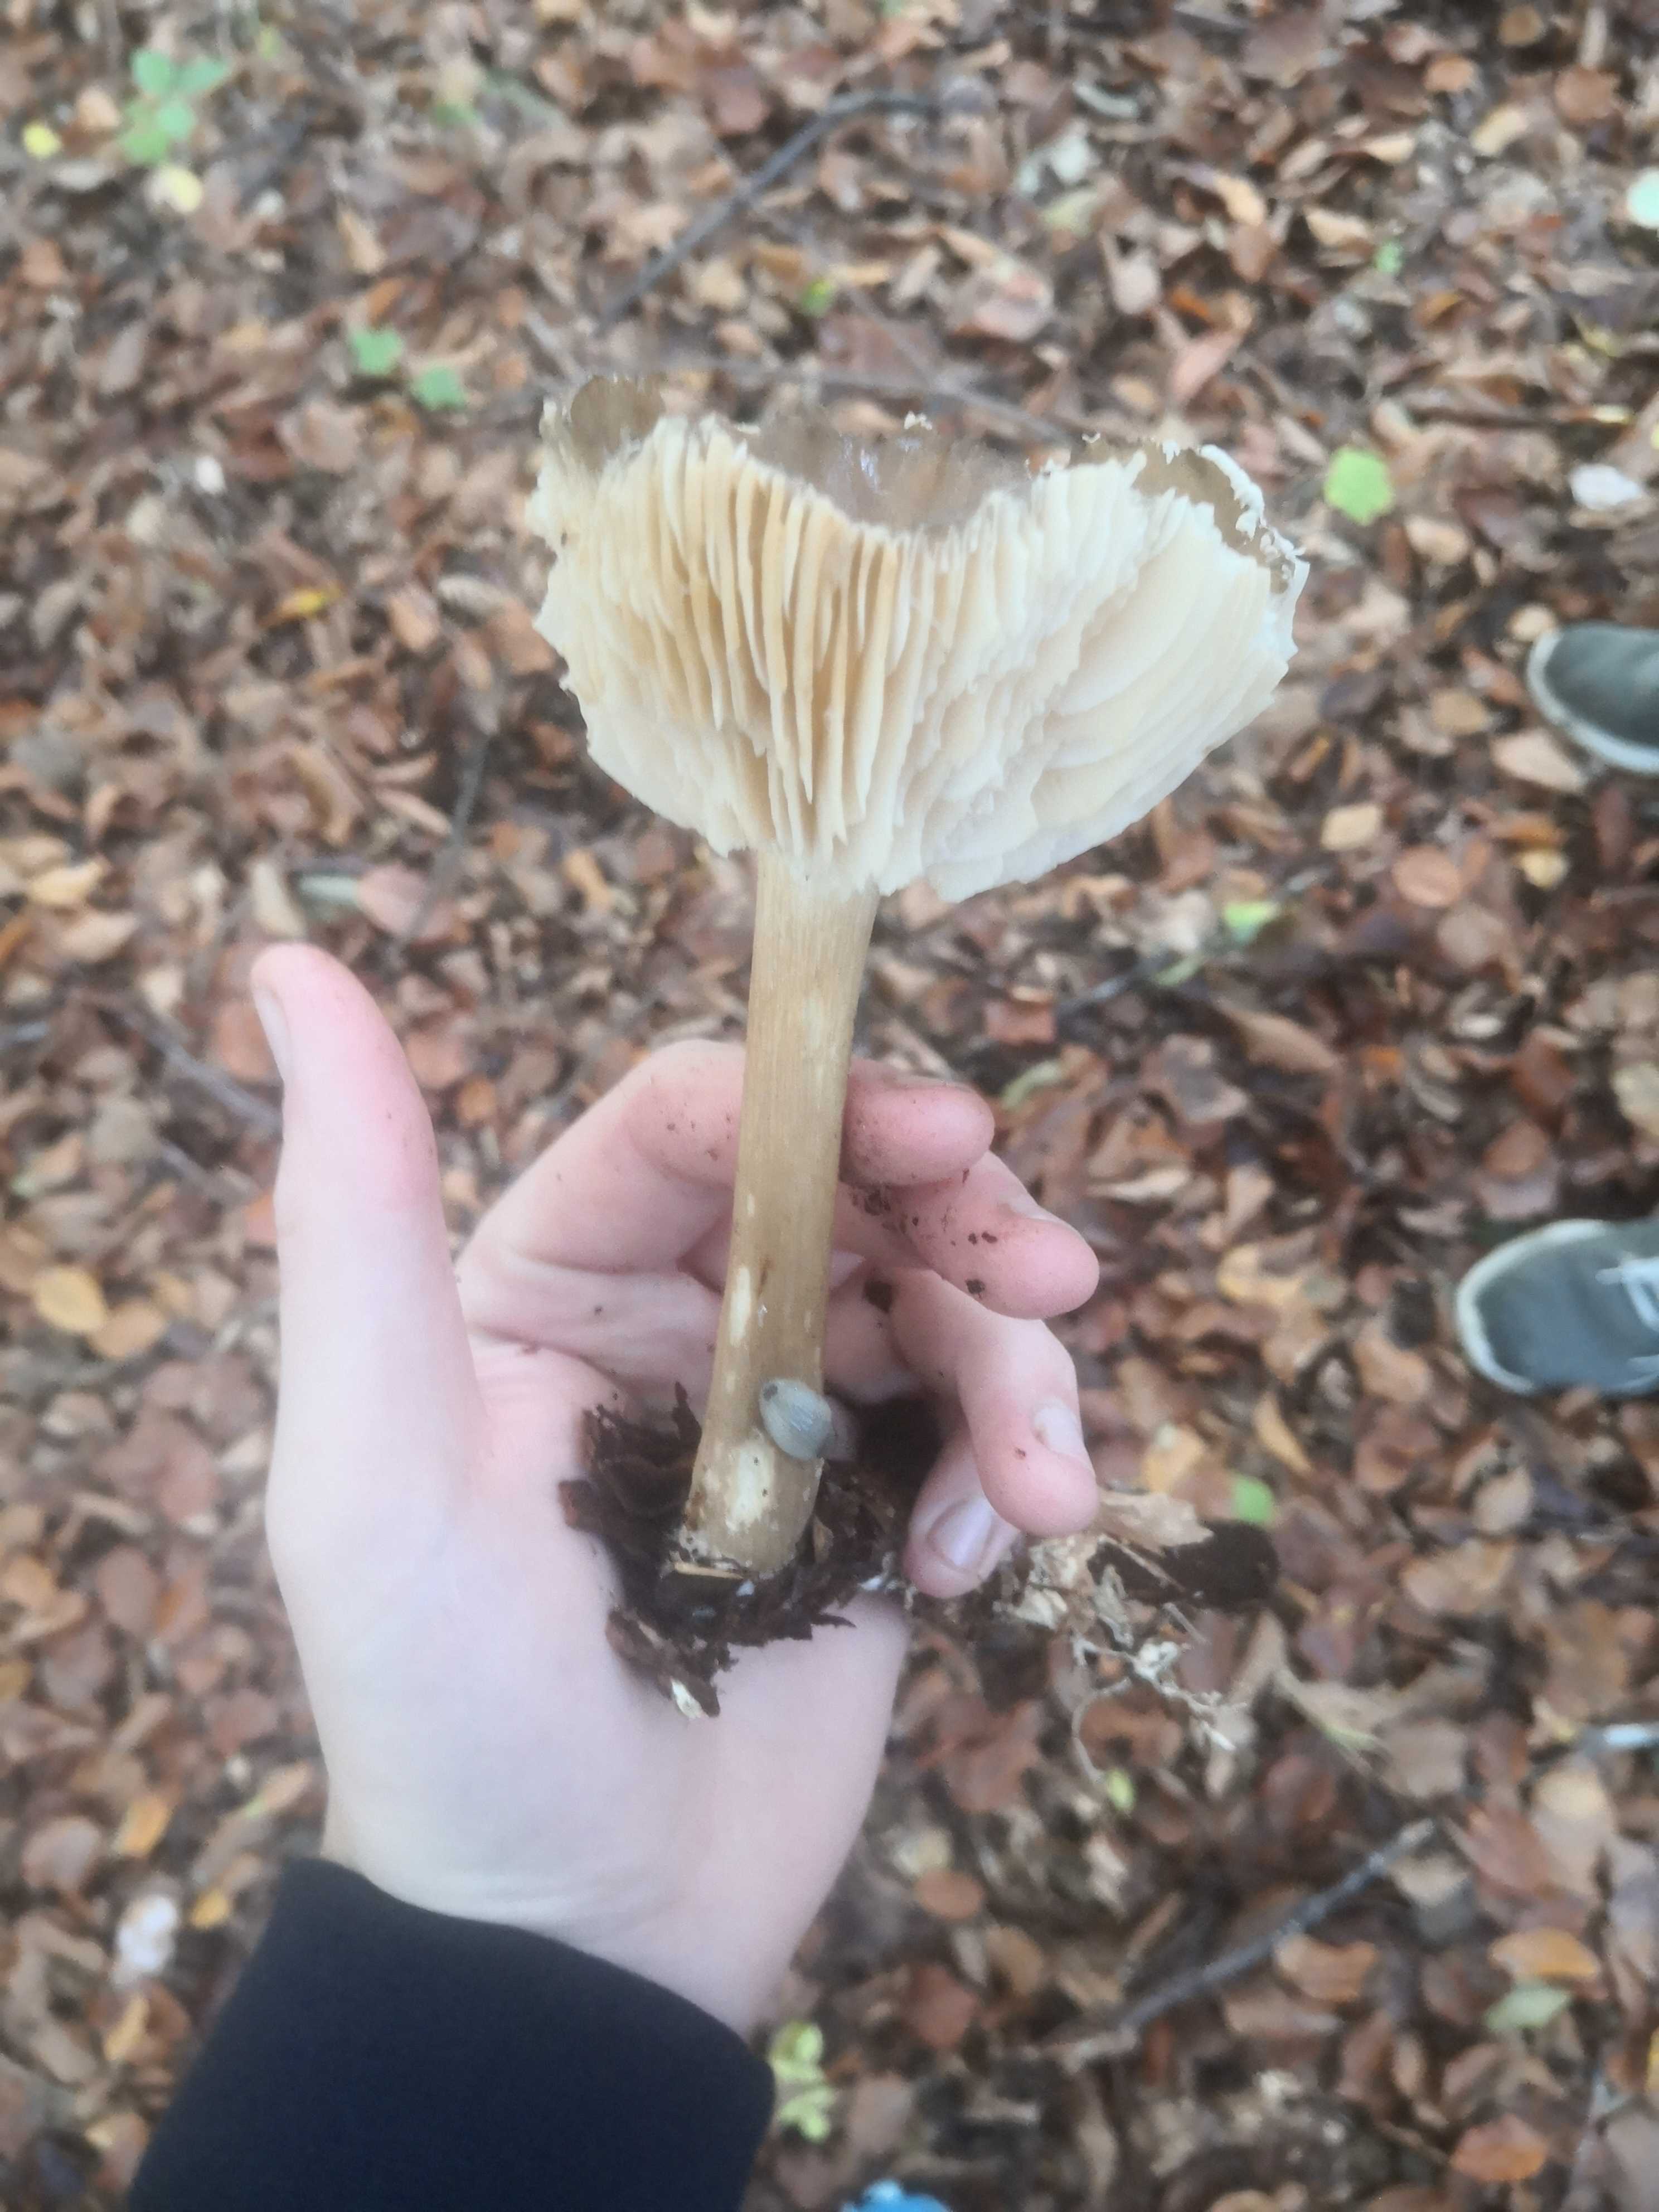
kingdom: Fungi
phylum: Basidiomycota
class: Agaricomycetes
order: Agaricales
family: Tricholomataceae
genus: Megacollybia
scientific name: Megacollybia platyphylla
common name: bredbladet væbnerhat
